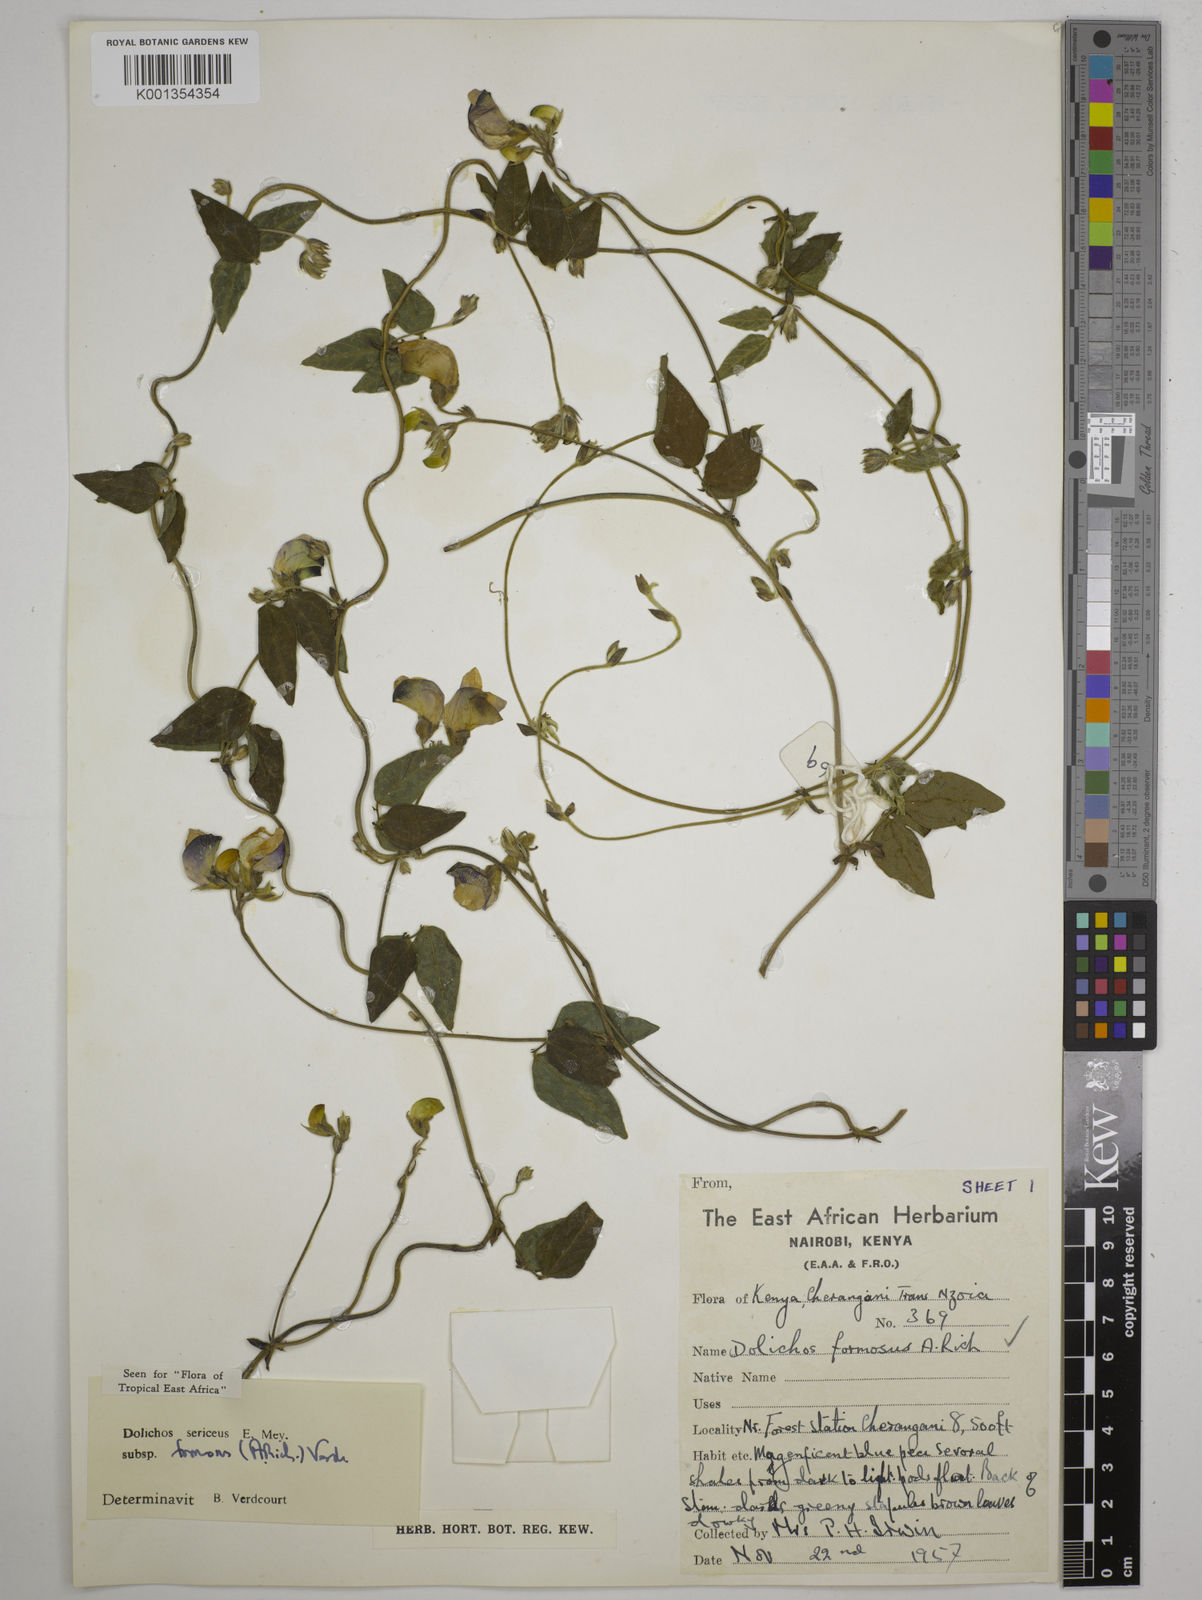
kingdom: Plantae
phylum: Tracheophyta
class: Magnoliopsida
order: Fabales
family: Fabaceae
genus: Dolichos
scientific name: Dolichos
